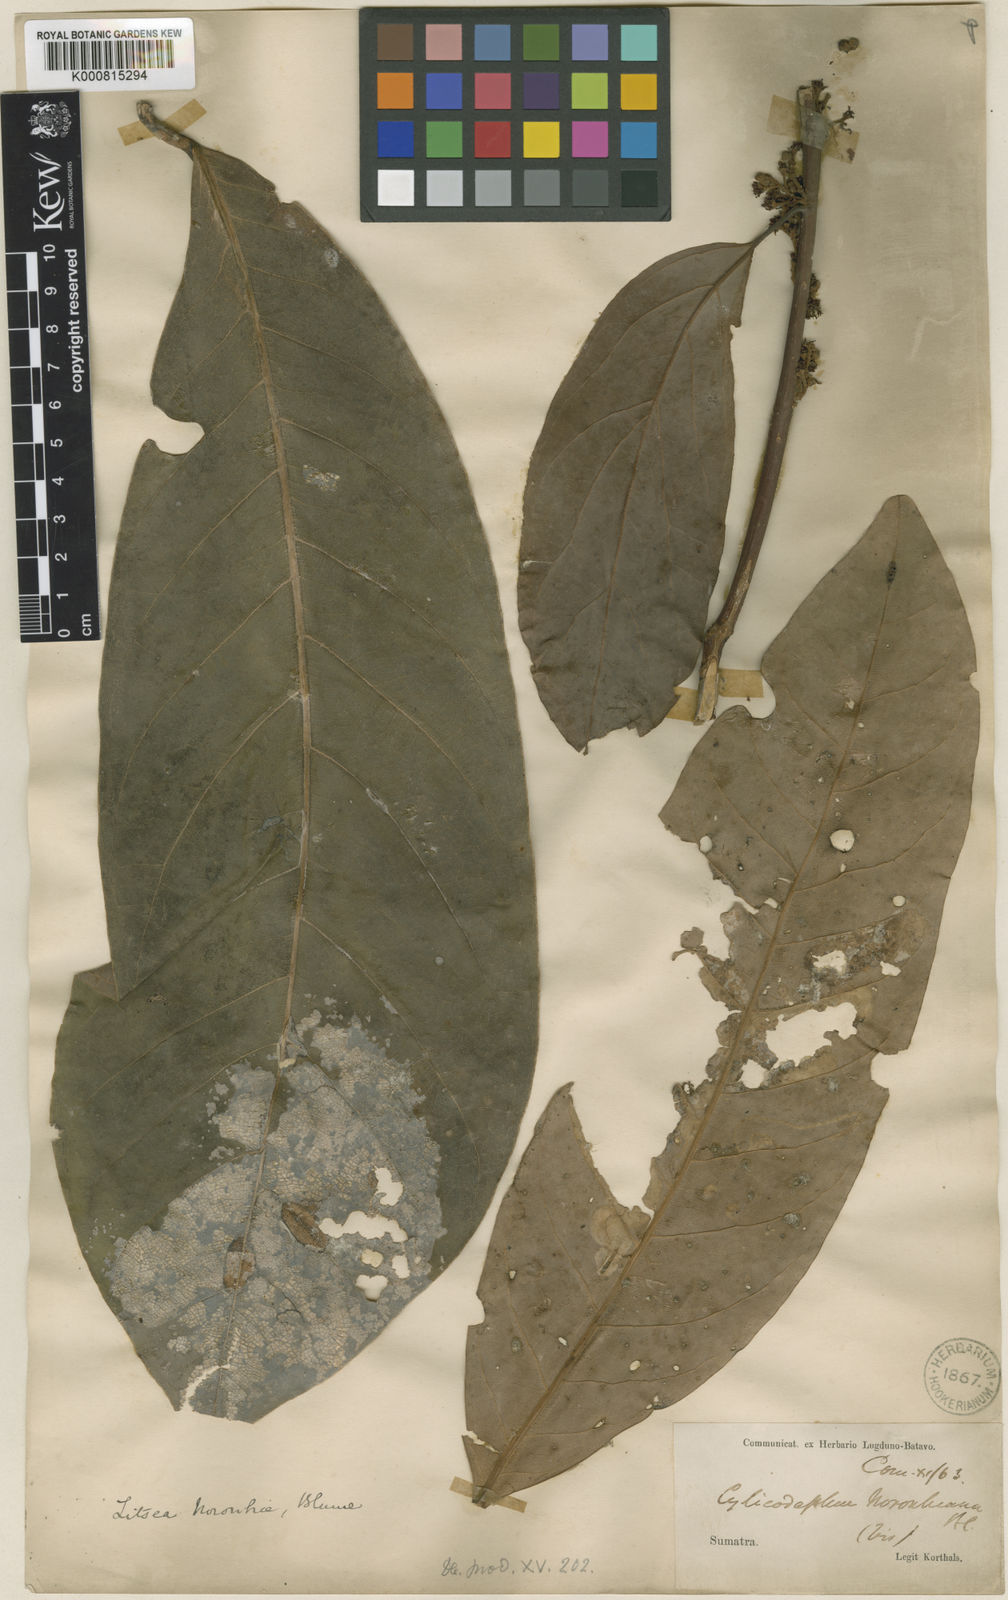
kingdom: Plantae
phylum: Tracheophyta
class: Magnoliopsida
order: Laurales
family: Lauraceae
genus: Litsea
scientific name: Litsea noronhae
